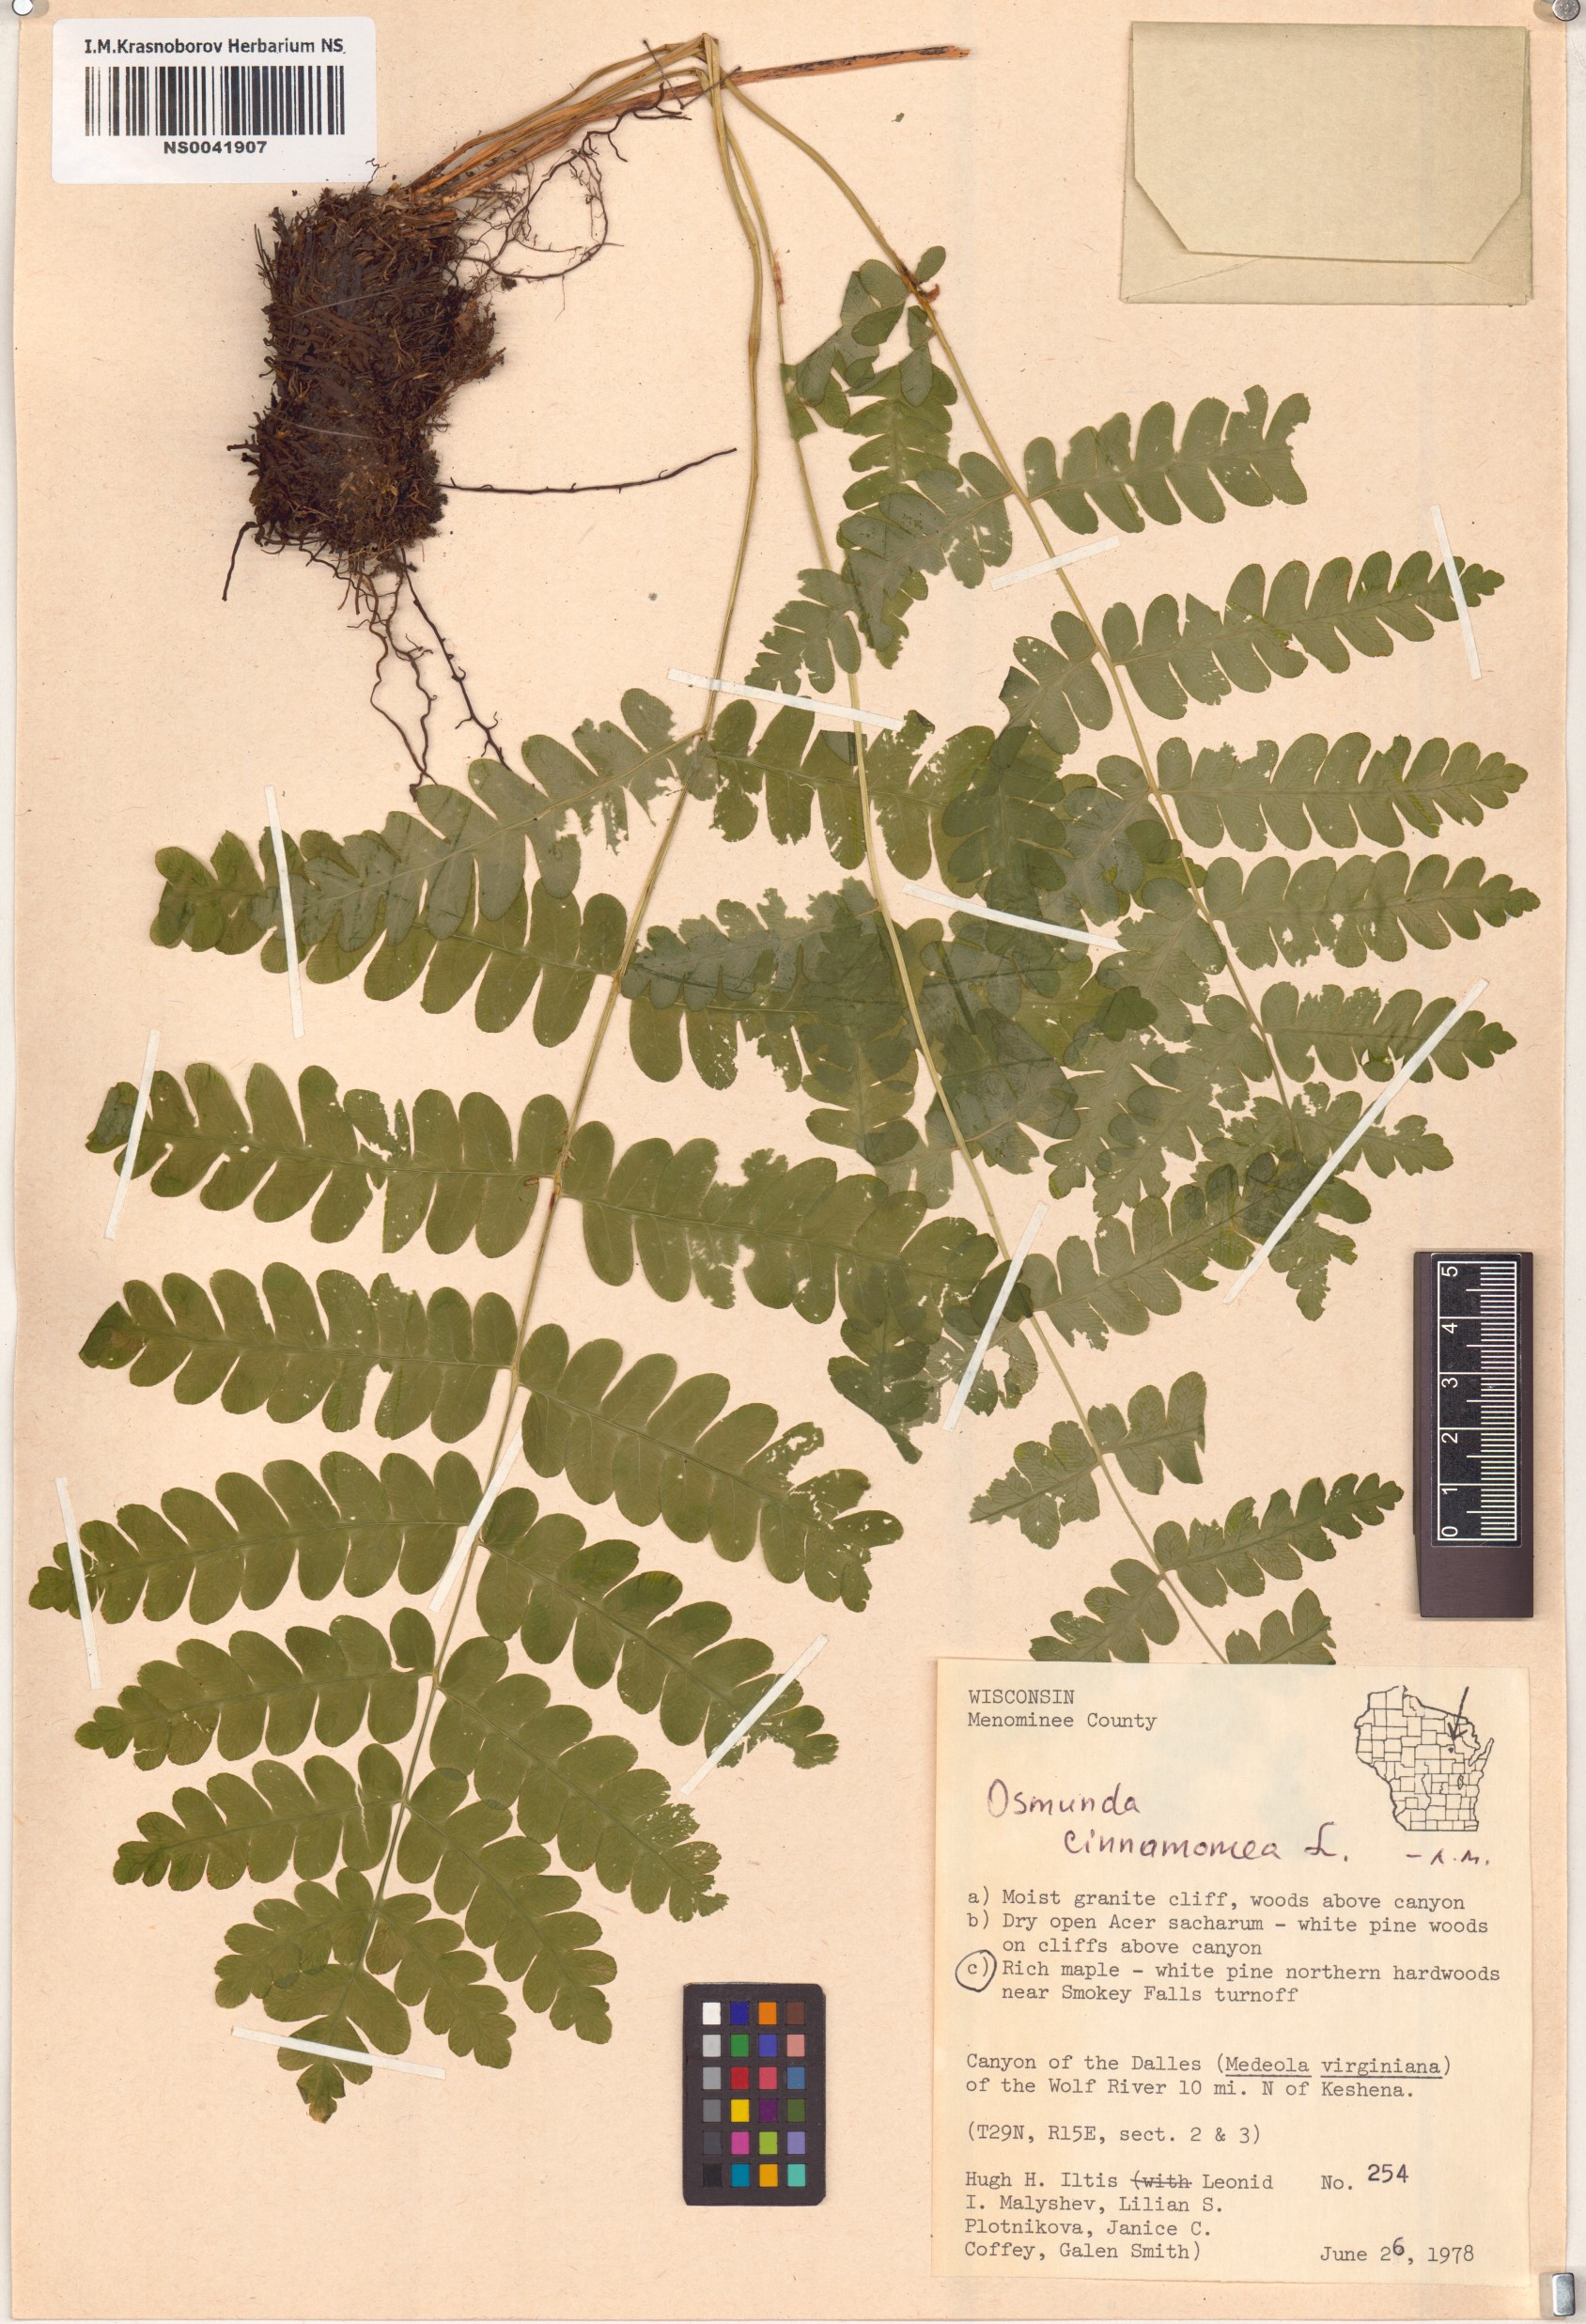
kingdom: Plantae
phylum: Tracheophyta
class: Polypodiopsida
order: Osmundales
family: Osmundaceae
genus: Osmundastrum
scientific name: Osmundastrum cinnamomeum
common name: Cinnamon fern
